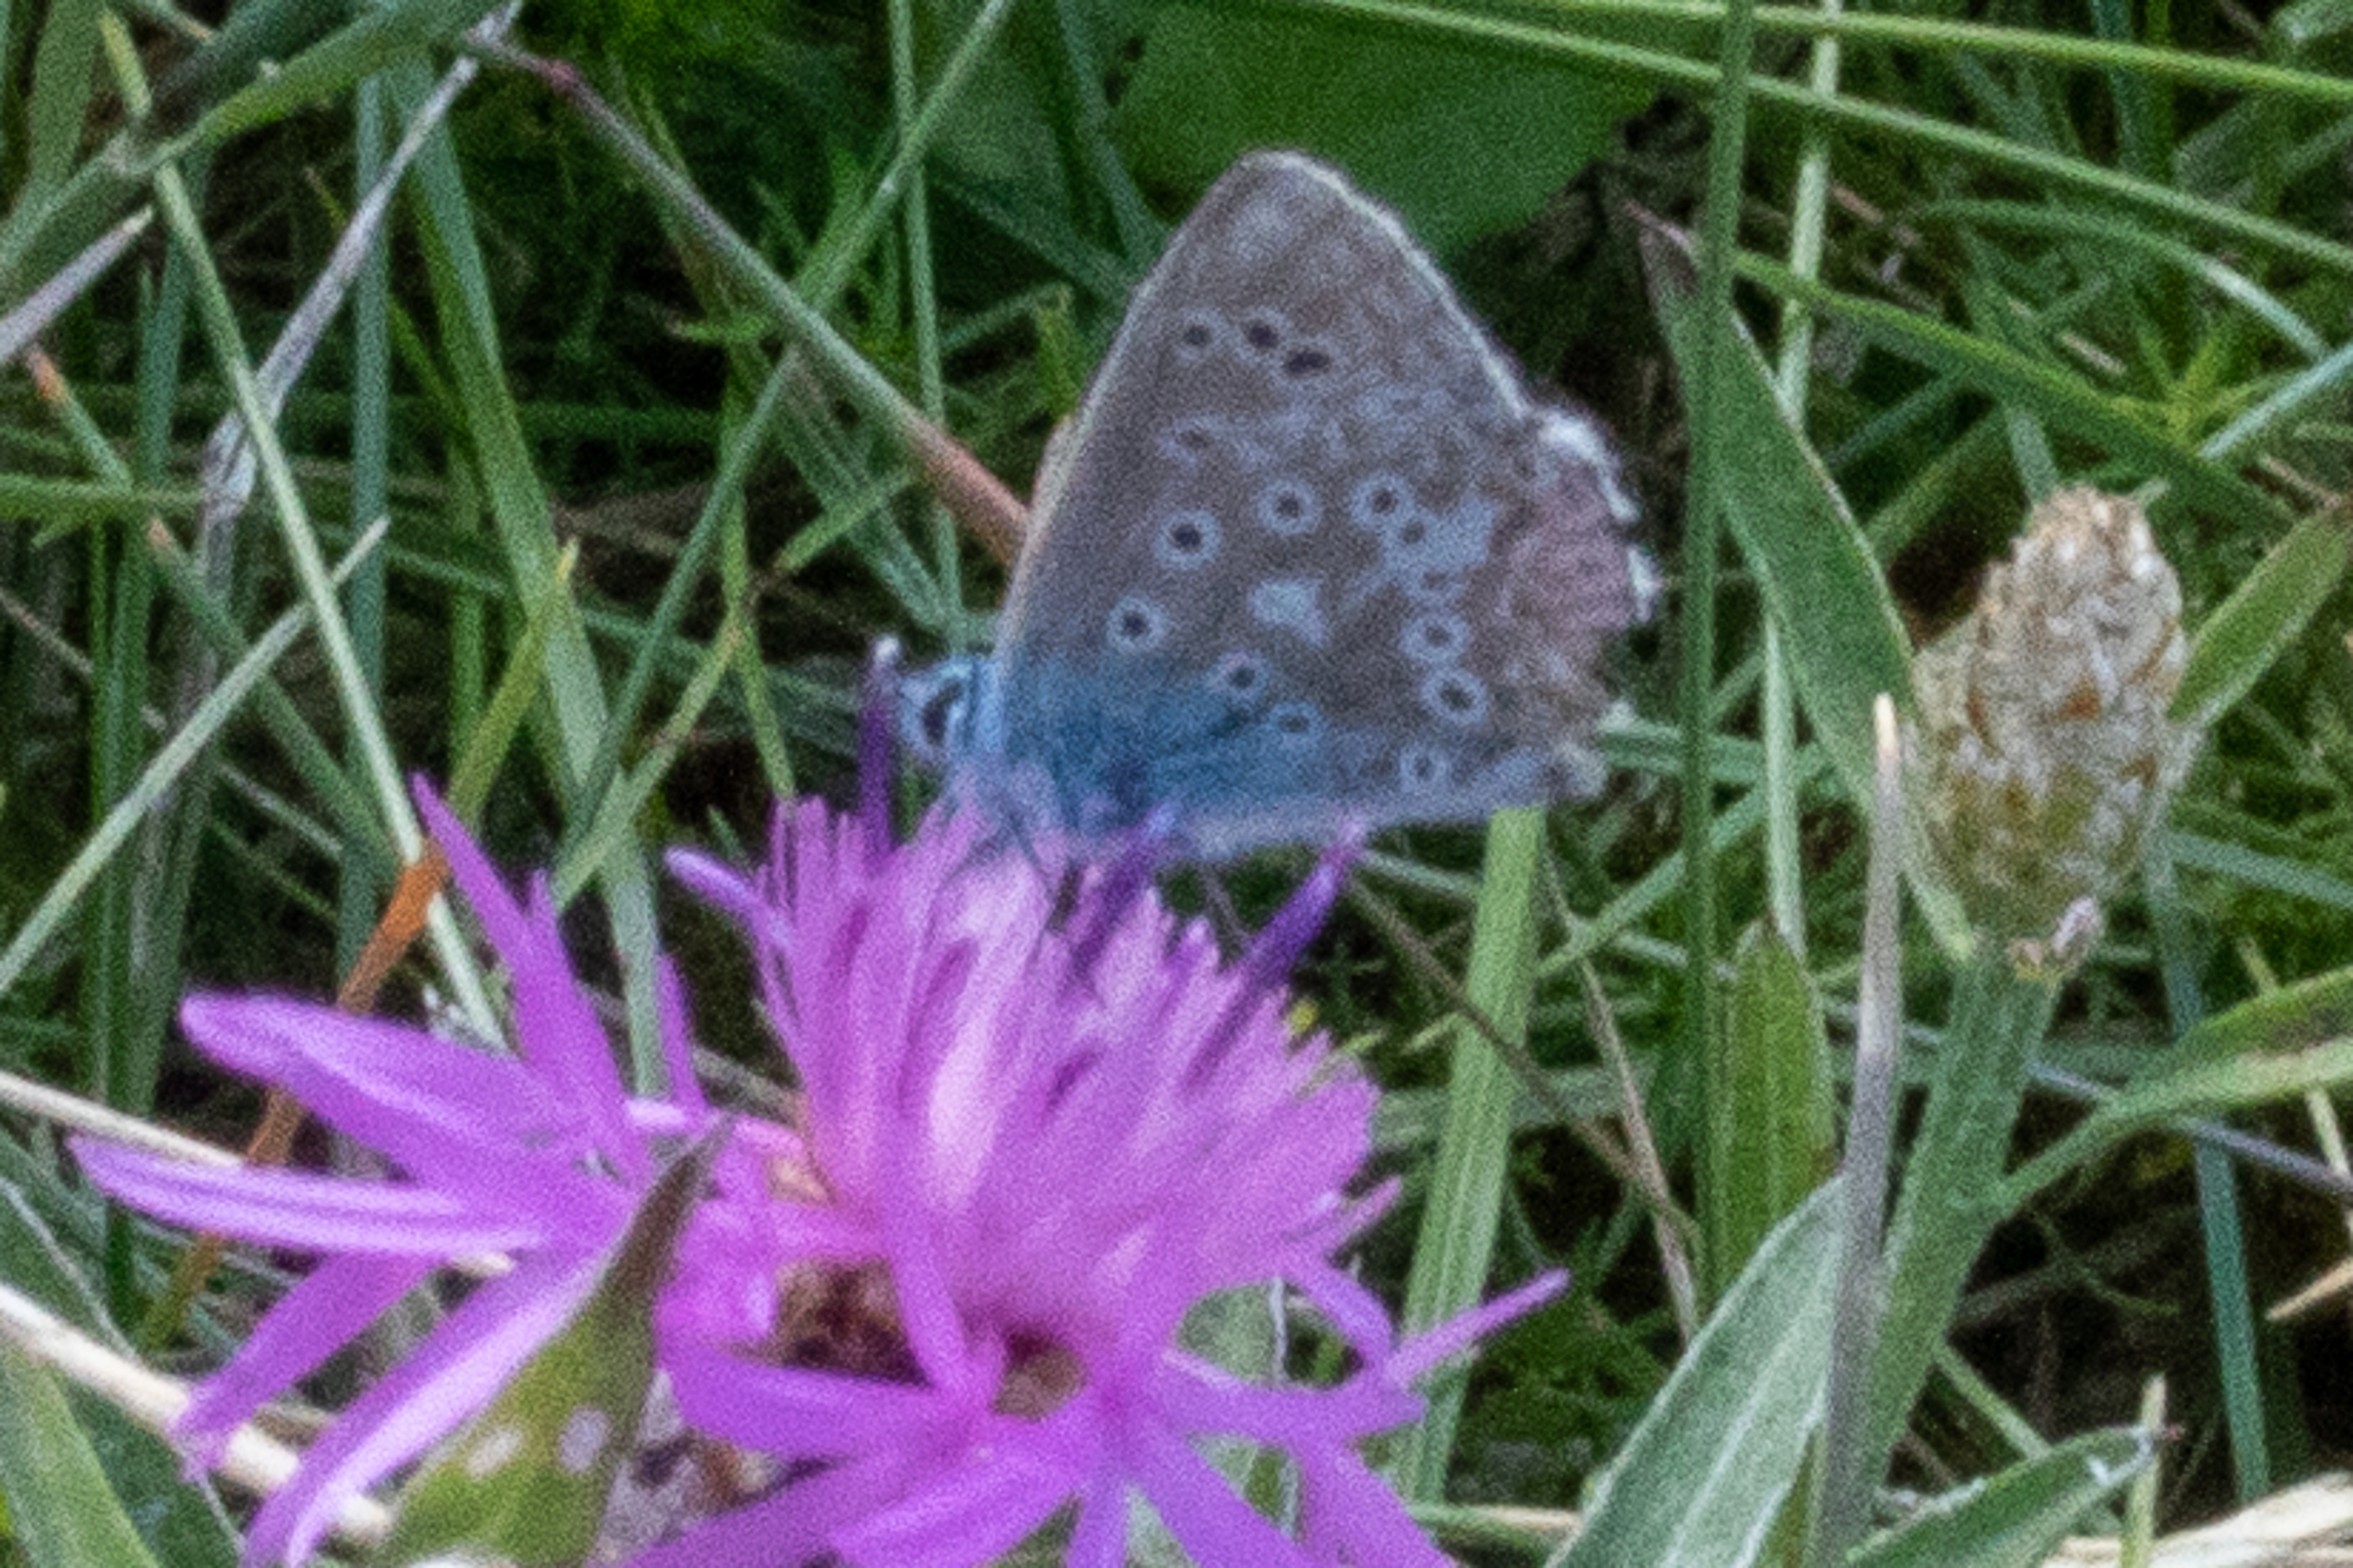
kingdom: Animalia
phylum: Arthropoda
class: Insecta
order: Lepidoptera
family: Lycaenidae
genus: Polyommatus
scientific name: Polyommatus icarus
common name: Almindelig blåfugl
